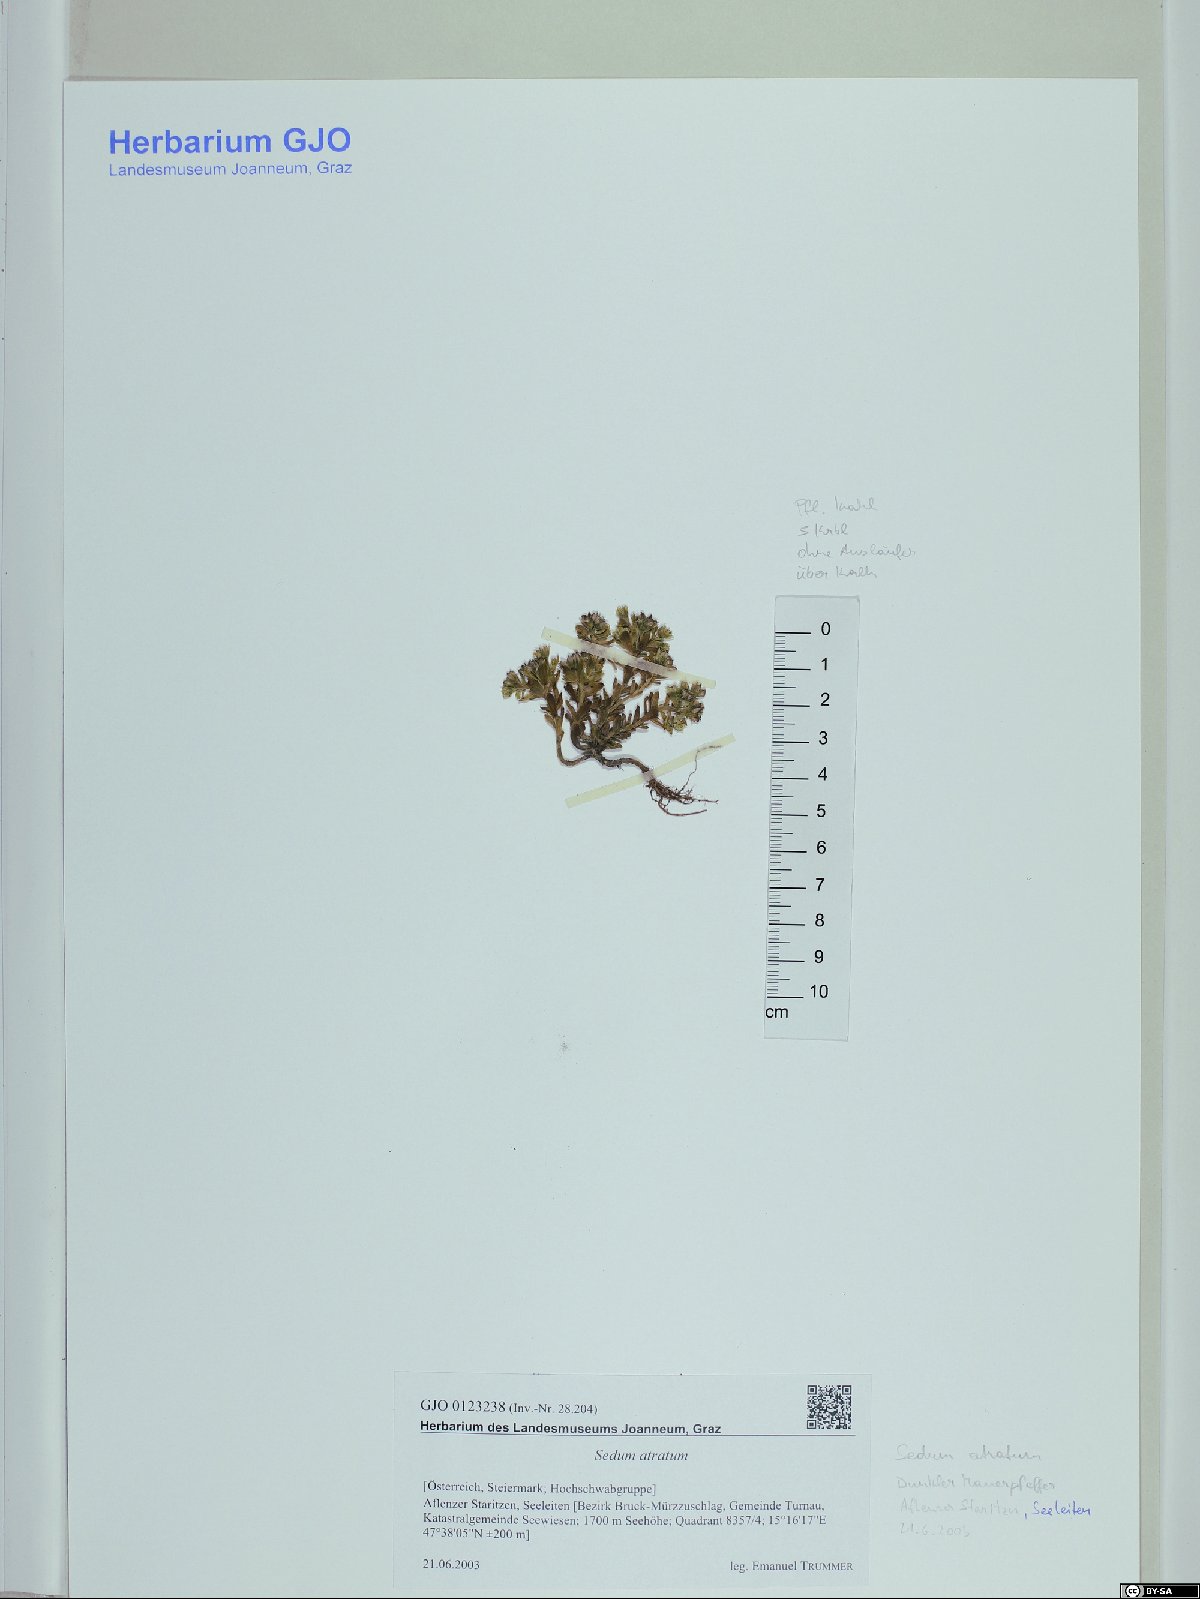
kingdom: Plantae
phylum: Tracheophyta
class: Magnoliopsida
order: Saxifragales
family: Crassulaceae
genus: Sedum
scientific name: Sedum atratum
